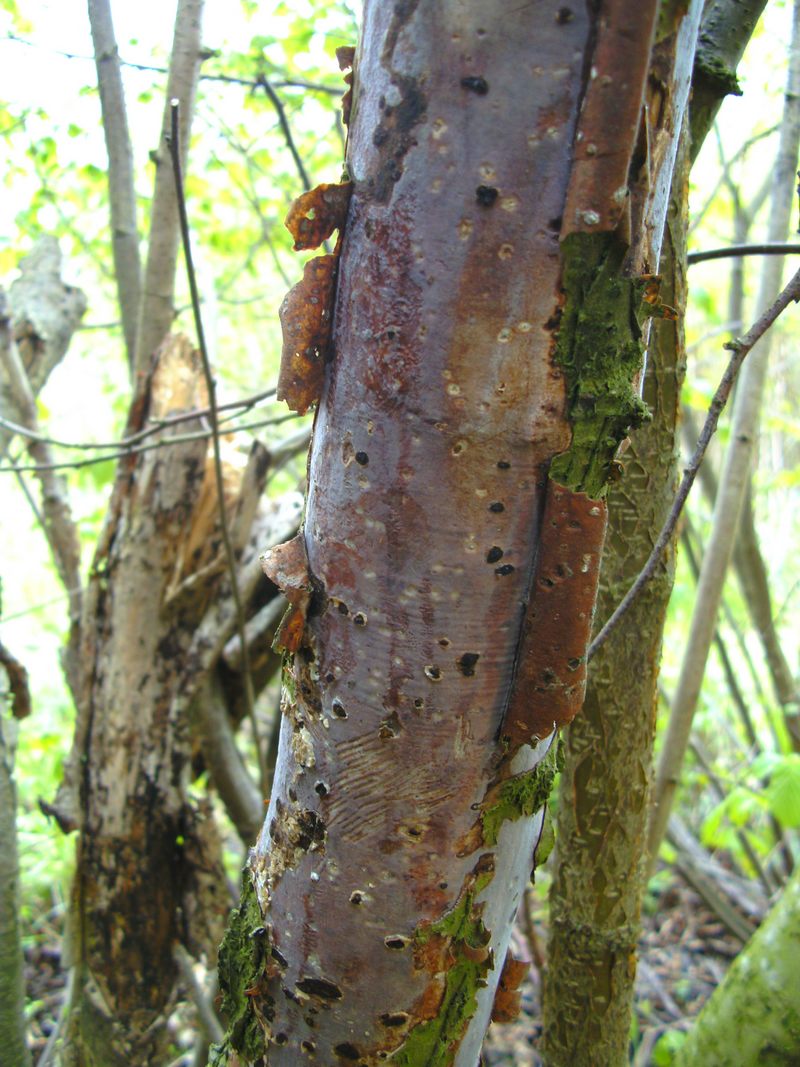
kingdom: Fungi
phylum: Basidiomycota
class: Agaricomycetes
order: Corticiales
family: Vuilleminiaceae
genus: Vuilleminia
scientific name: Vuilleminia coryli
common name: hassel-barksprænger
